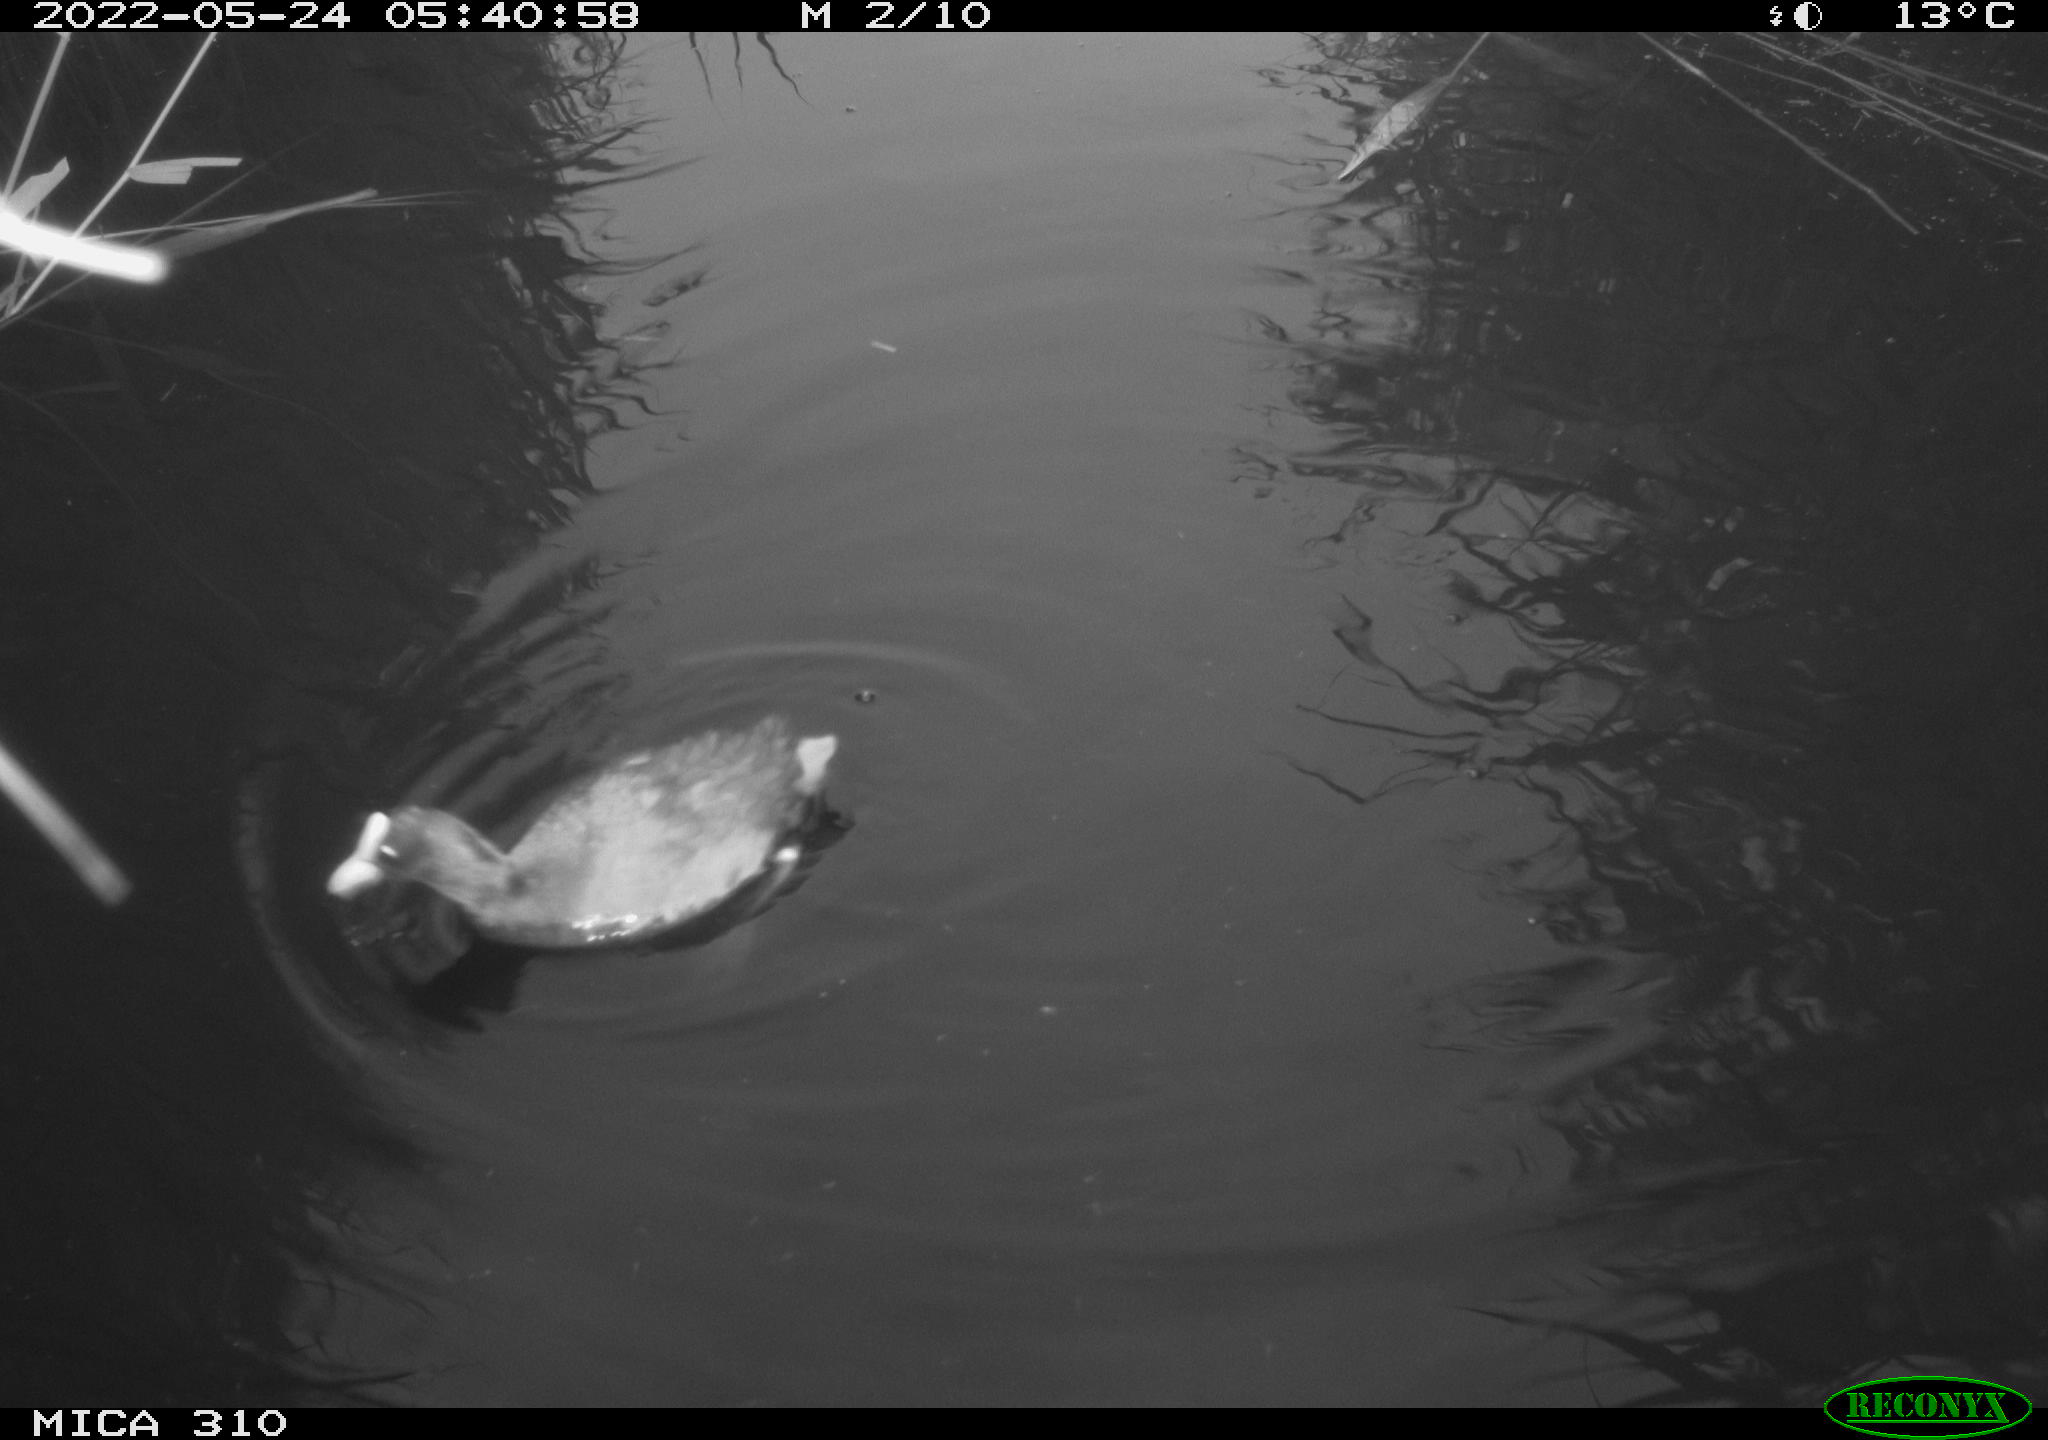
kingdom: Animalia
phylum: Chordata
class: Aves
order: Gruiformes
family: Rallidae
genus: Fulica
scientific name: Fulica atra
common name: Eurasian coot
